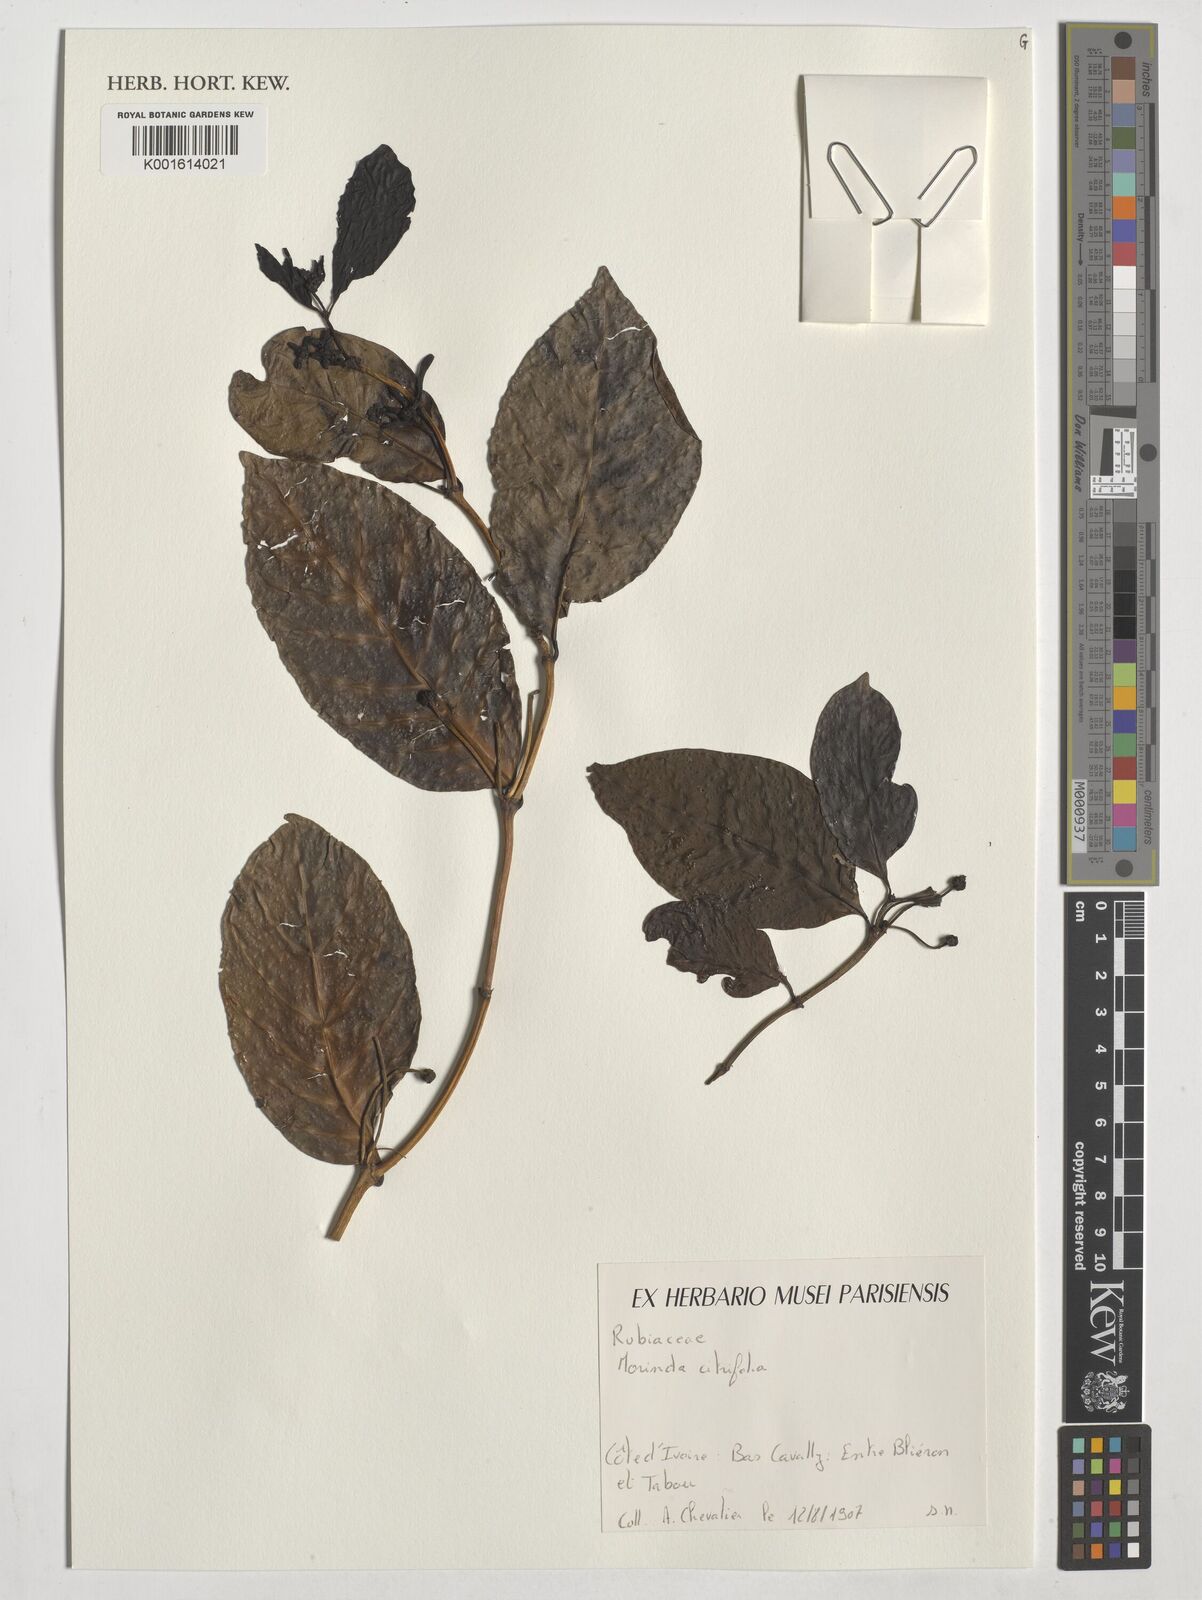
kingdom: Plantae
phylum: Tracheophyta
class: Magnoliopsida
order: Gentianales
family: Rubiaceae
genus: Morinda
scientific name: Morinda citrifolia
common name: Indian-mulberry
